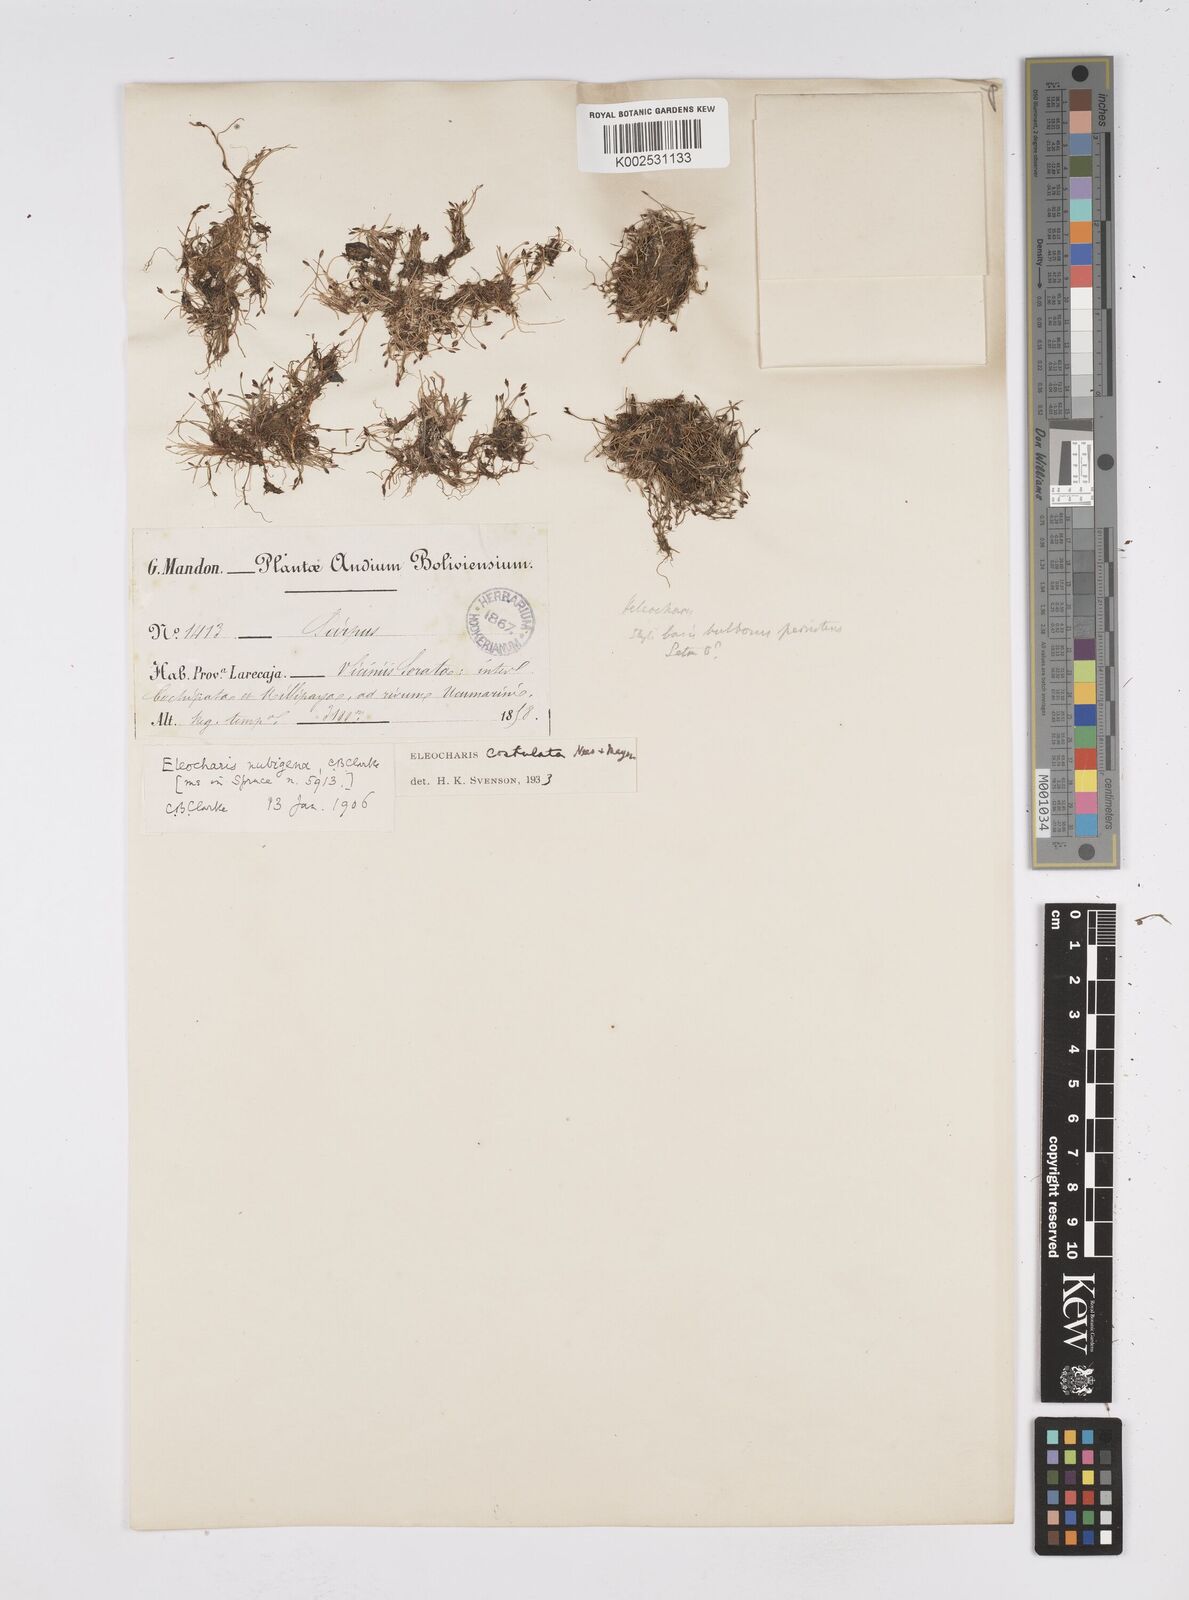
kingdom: Plantae
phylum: Tracheophyta
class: Liliopsida
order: Poales
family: Cyperaceae
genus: Eleocharis
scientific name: Eleocharis exigua
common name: Spikesedge
